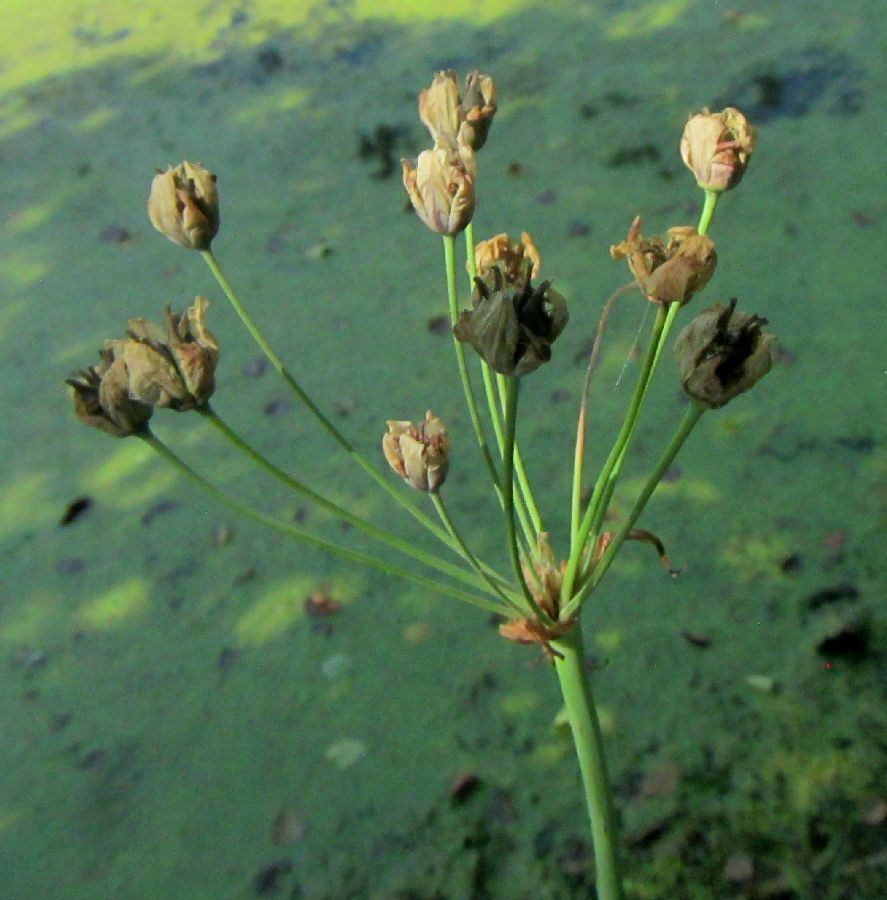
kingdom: Plantae
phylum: Tracheophyta
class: Liliopsida
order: Alismatales
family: Butomaceae
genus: Butomus
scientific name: Butomus umbellatus
